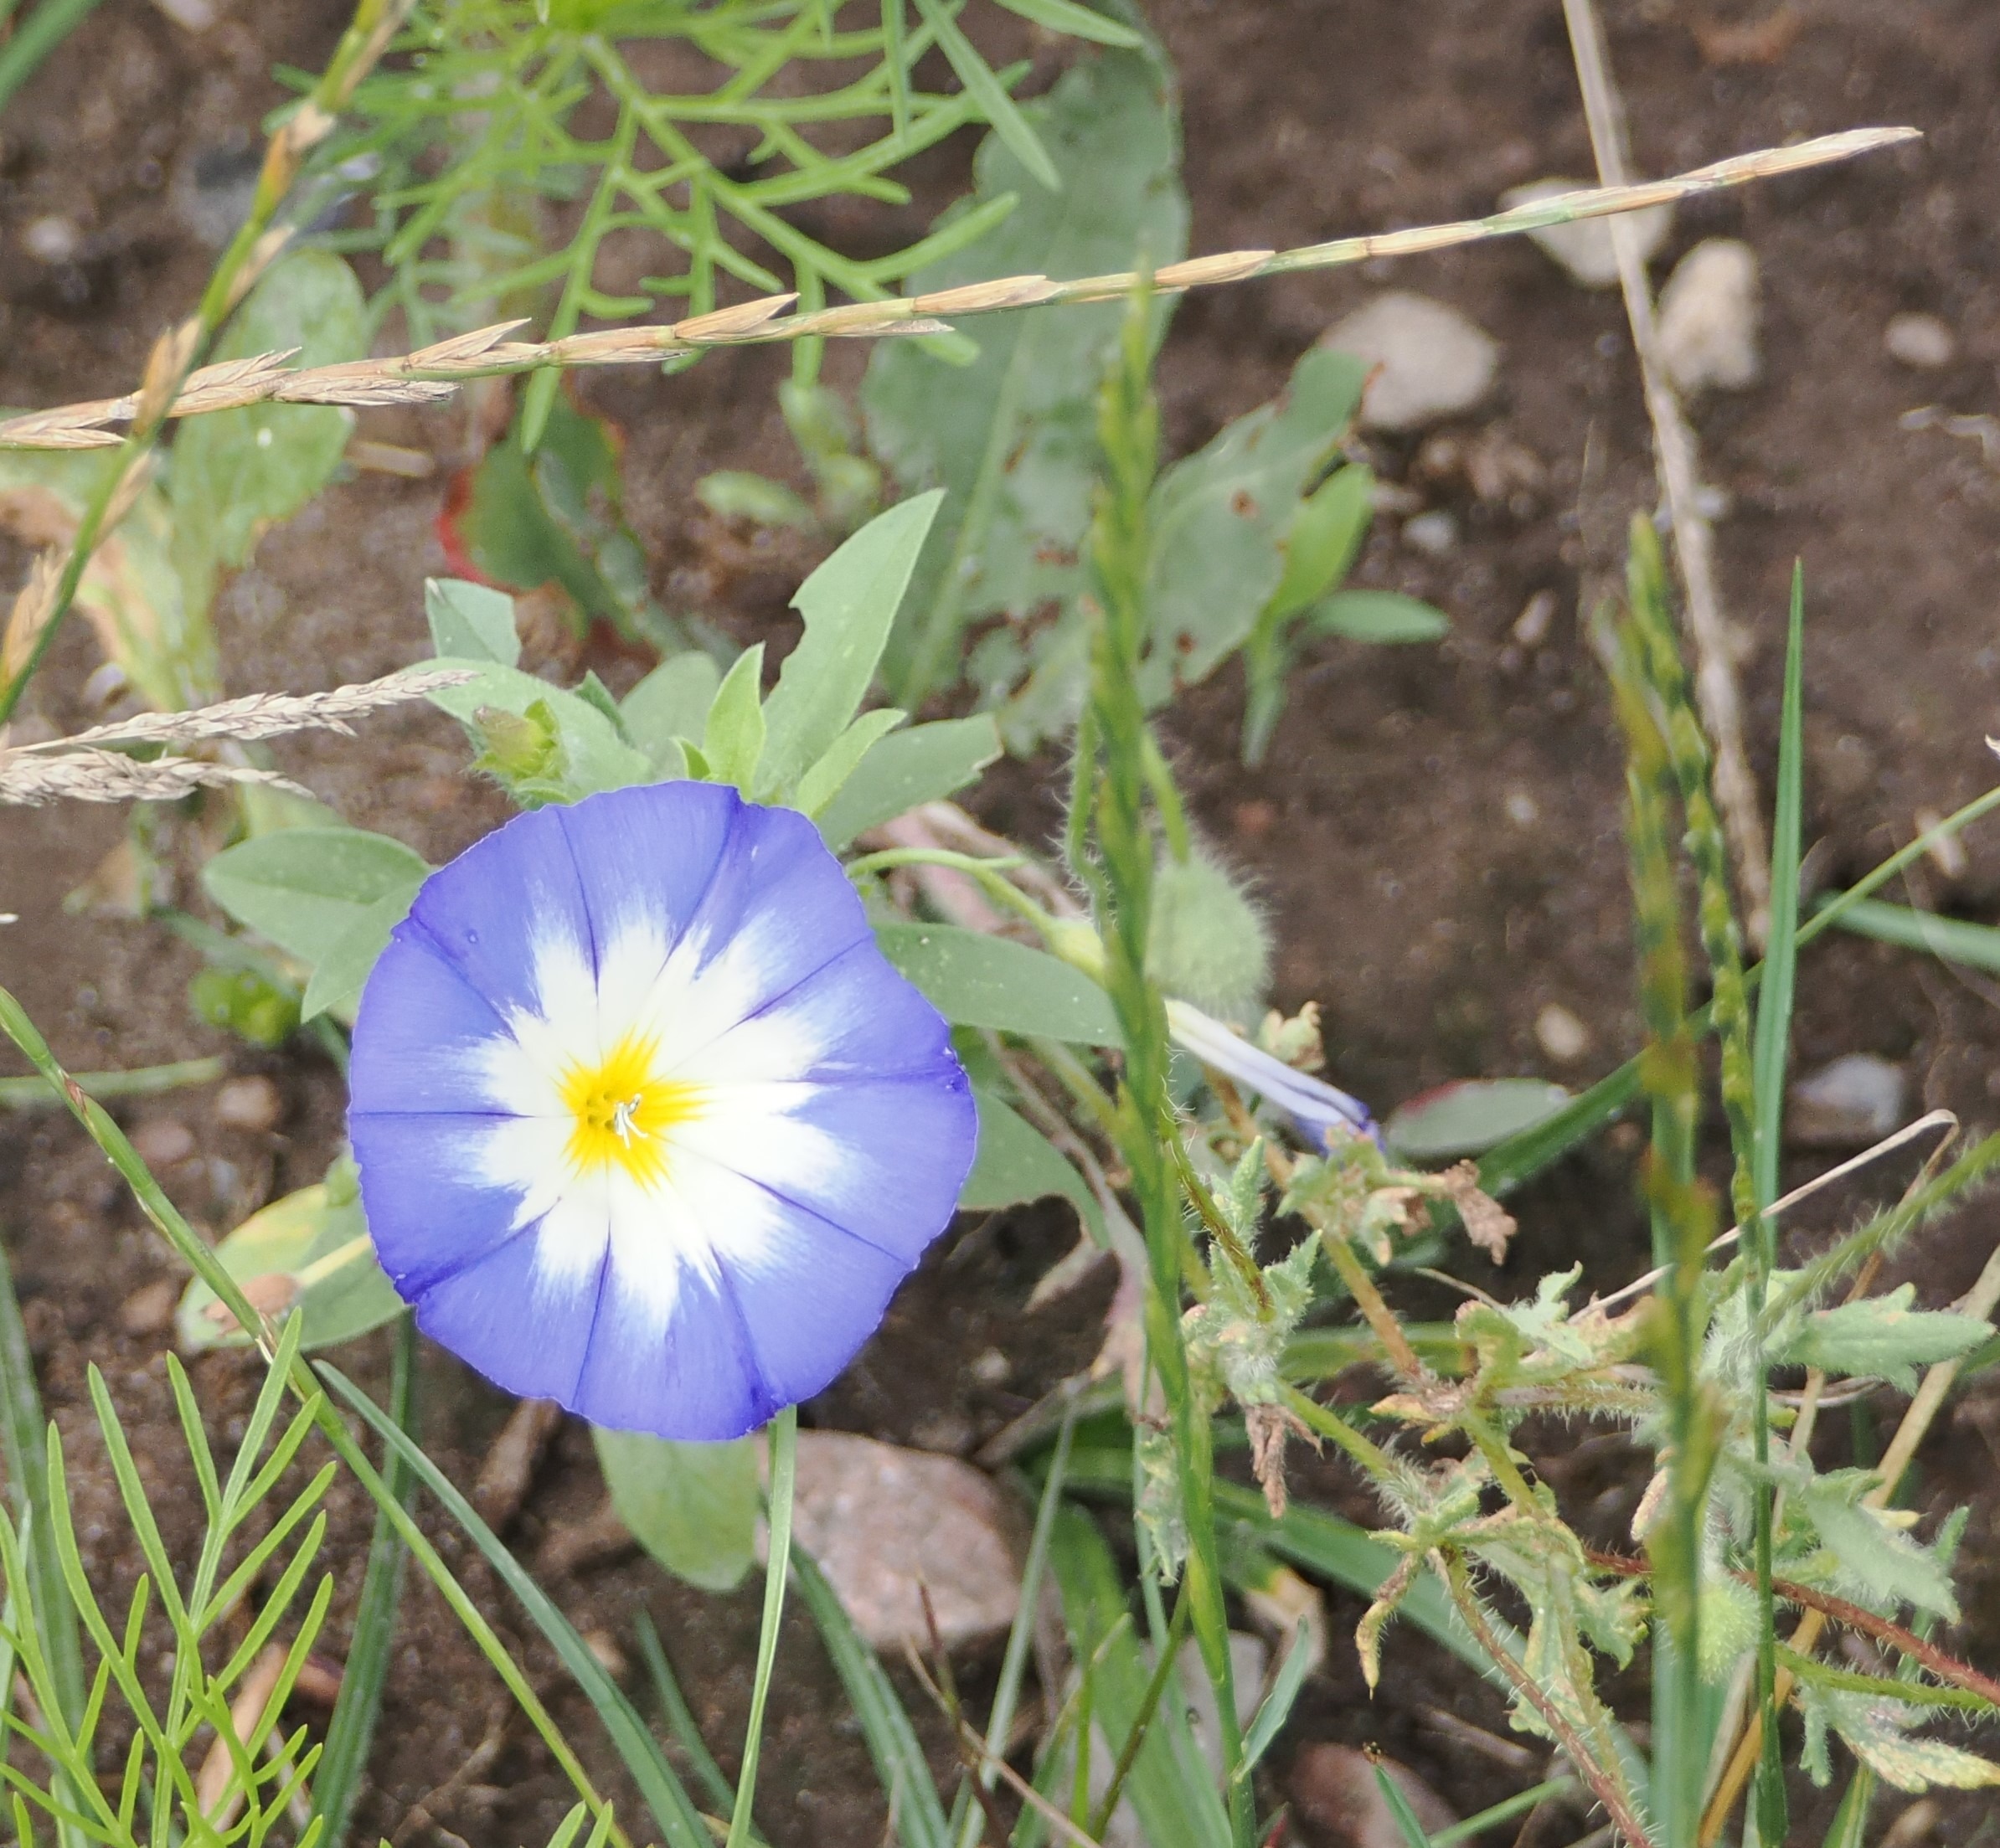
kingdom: Plantae
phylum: Tracheophyta
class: Magnoliopsida
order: Solanales
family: Convolvulaceae
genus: Convolvulus
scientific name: Convolvulus tricolor
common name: Jomfruskørt
